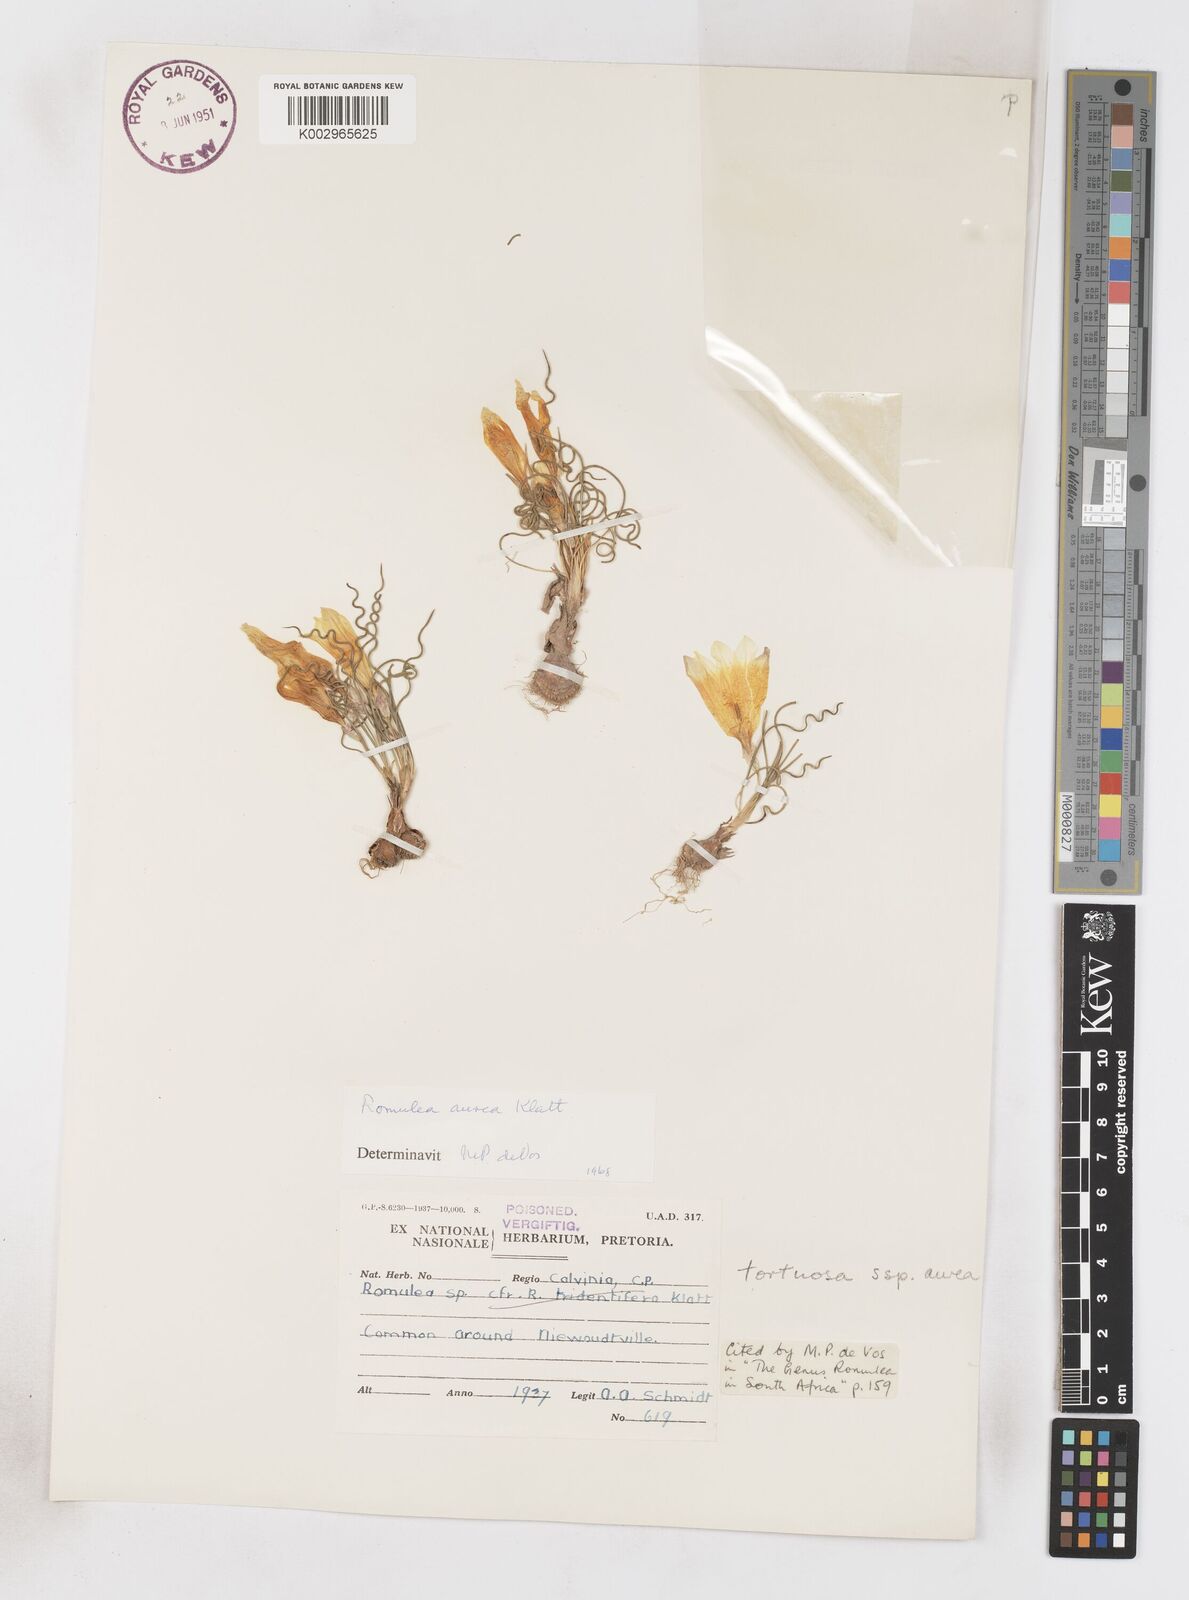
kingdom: Plantae
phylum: Tracheophyta
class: Liliopsida
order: Asparagales
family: Iridaceae
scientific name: Iridaceae
